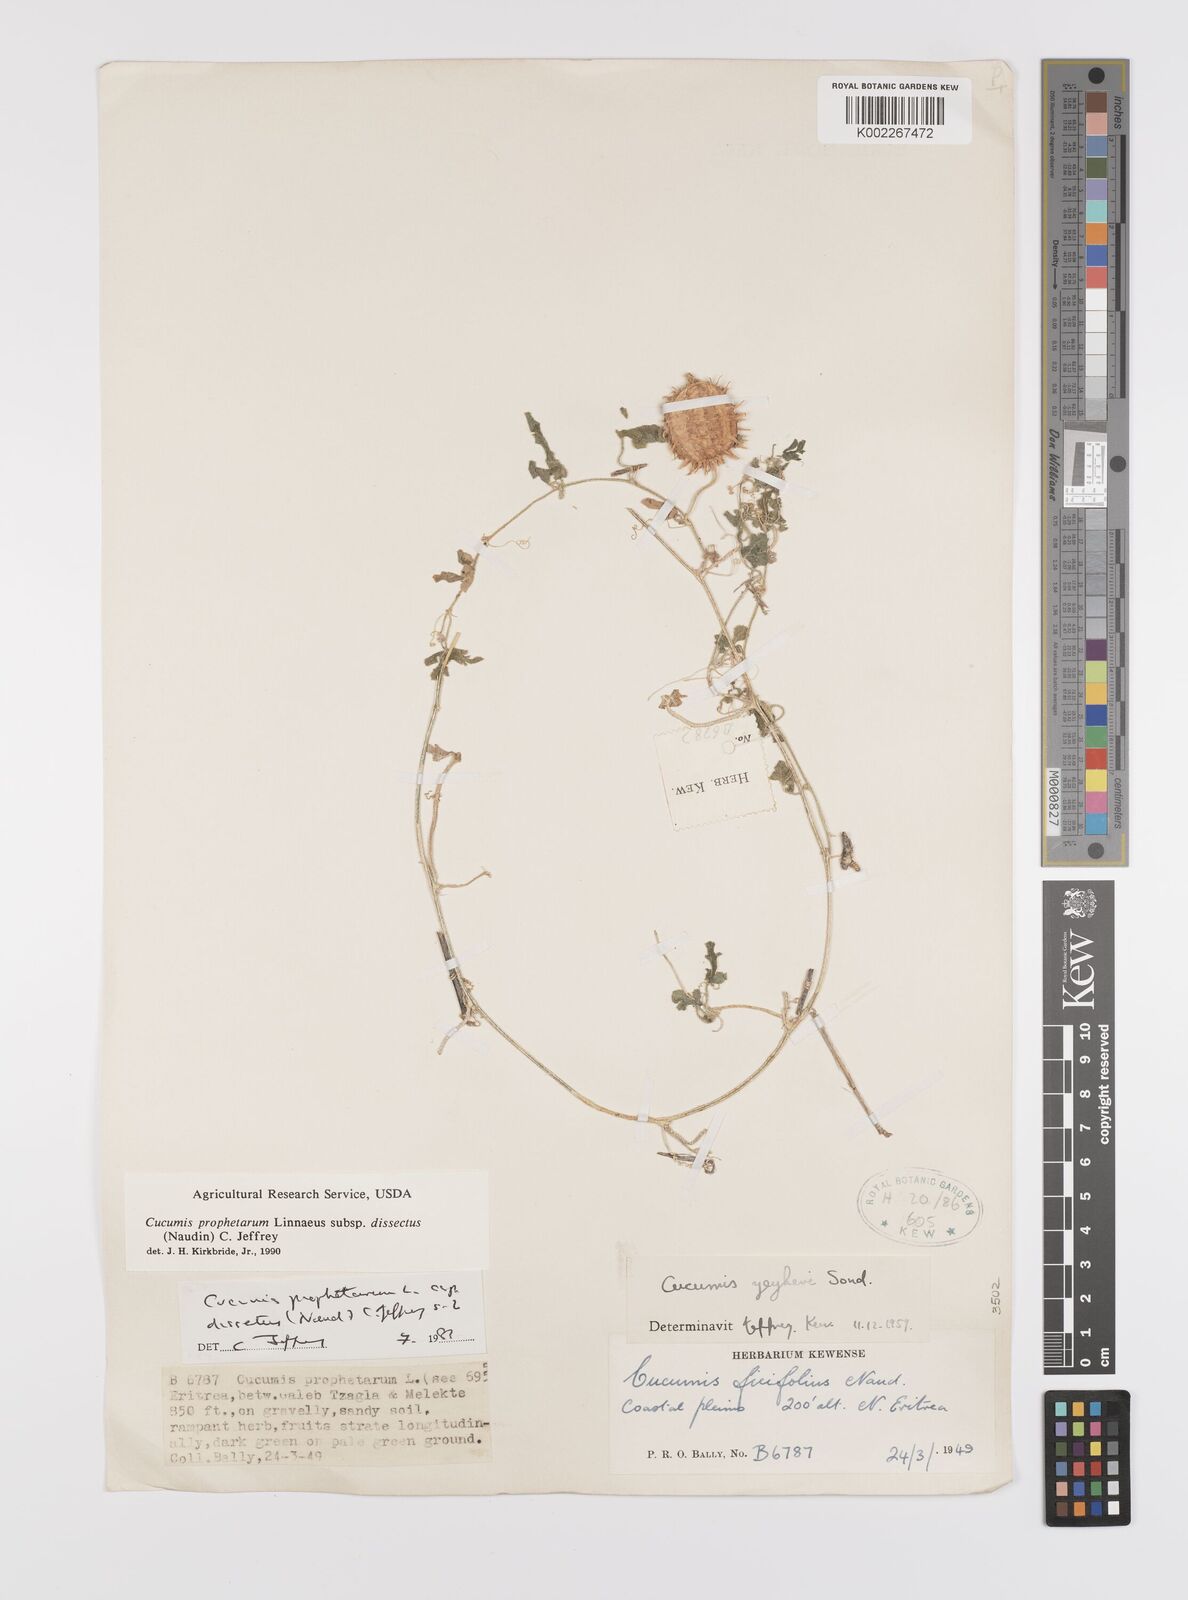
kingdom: Plantae
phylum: Tracheophyta
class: Magnoliopsida
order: Cucurbitales
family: Cucurbitaceae
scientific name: Cucurbitaceae
